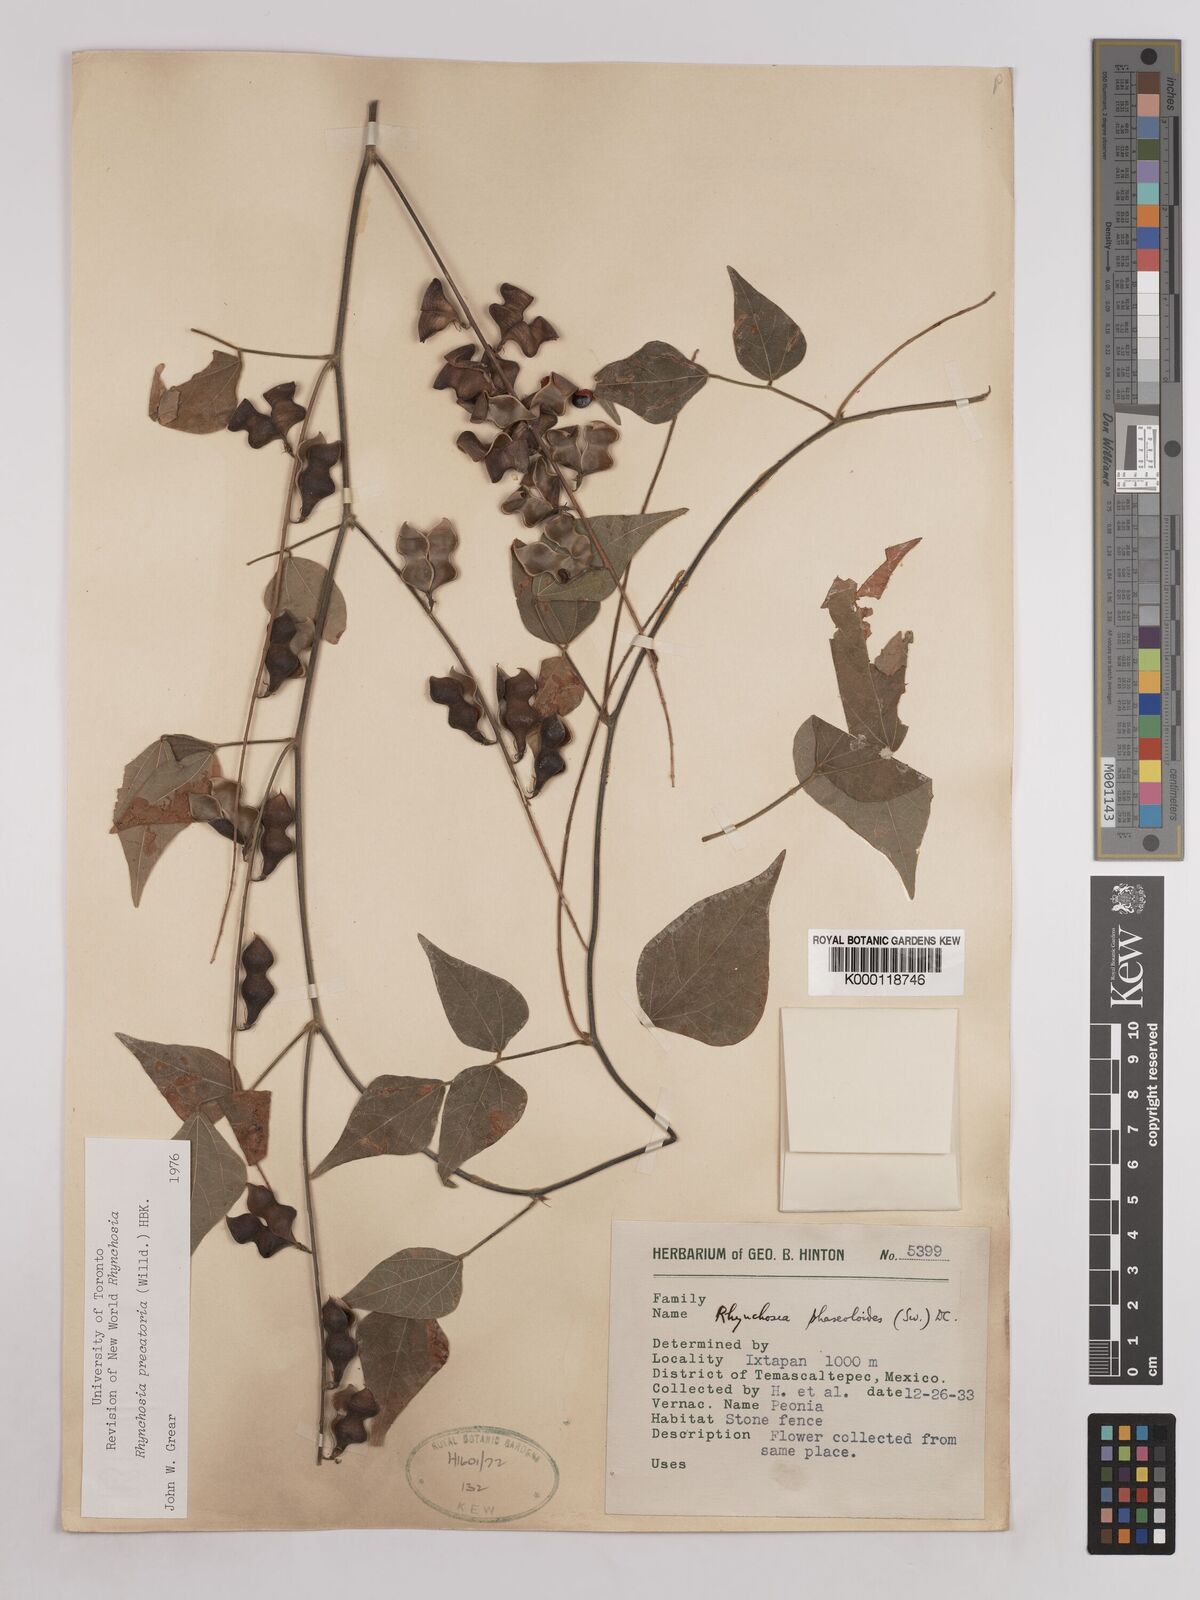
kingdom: Plantae
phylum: Tracheophyta
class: Magnoliopsida
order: Fabales
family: Fabaceae
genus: Rhynchosia
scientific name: Rhynchosia
